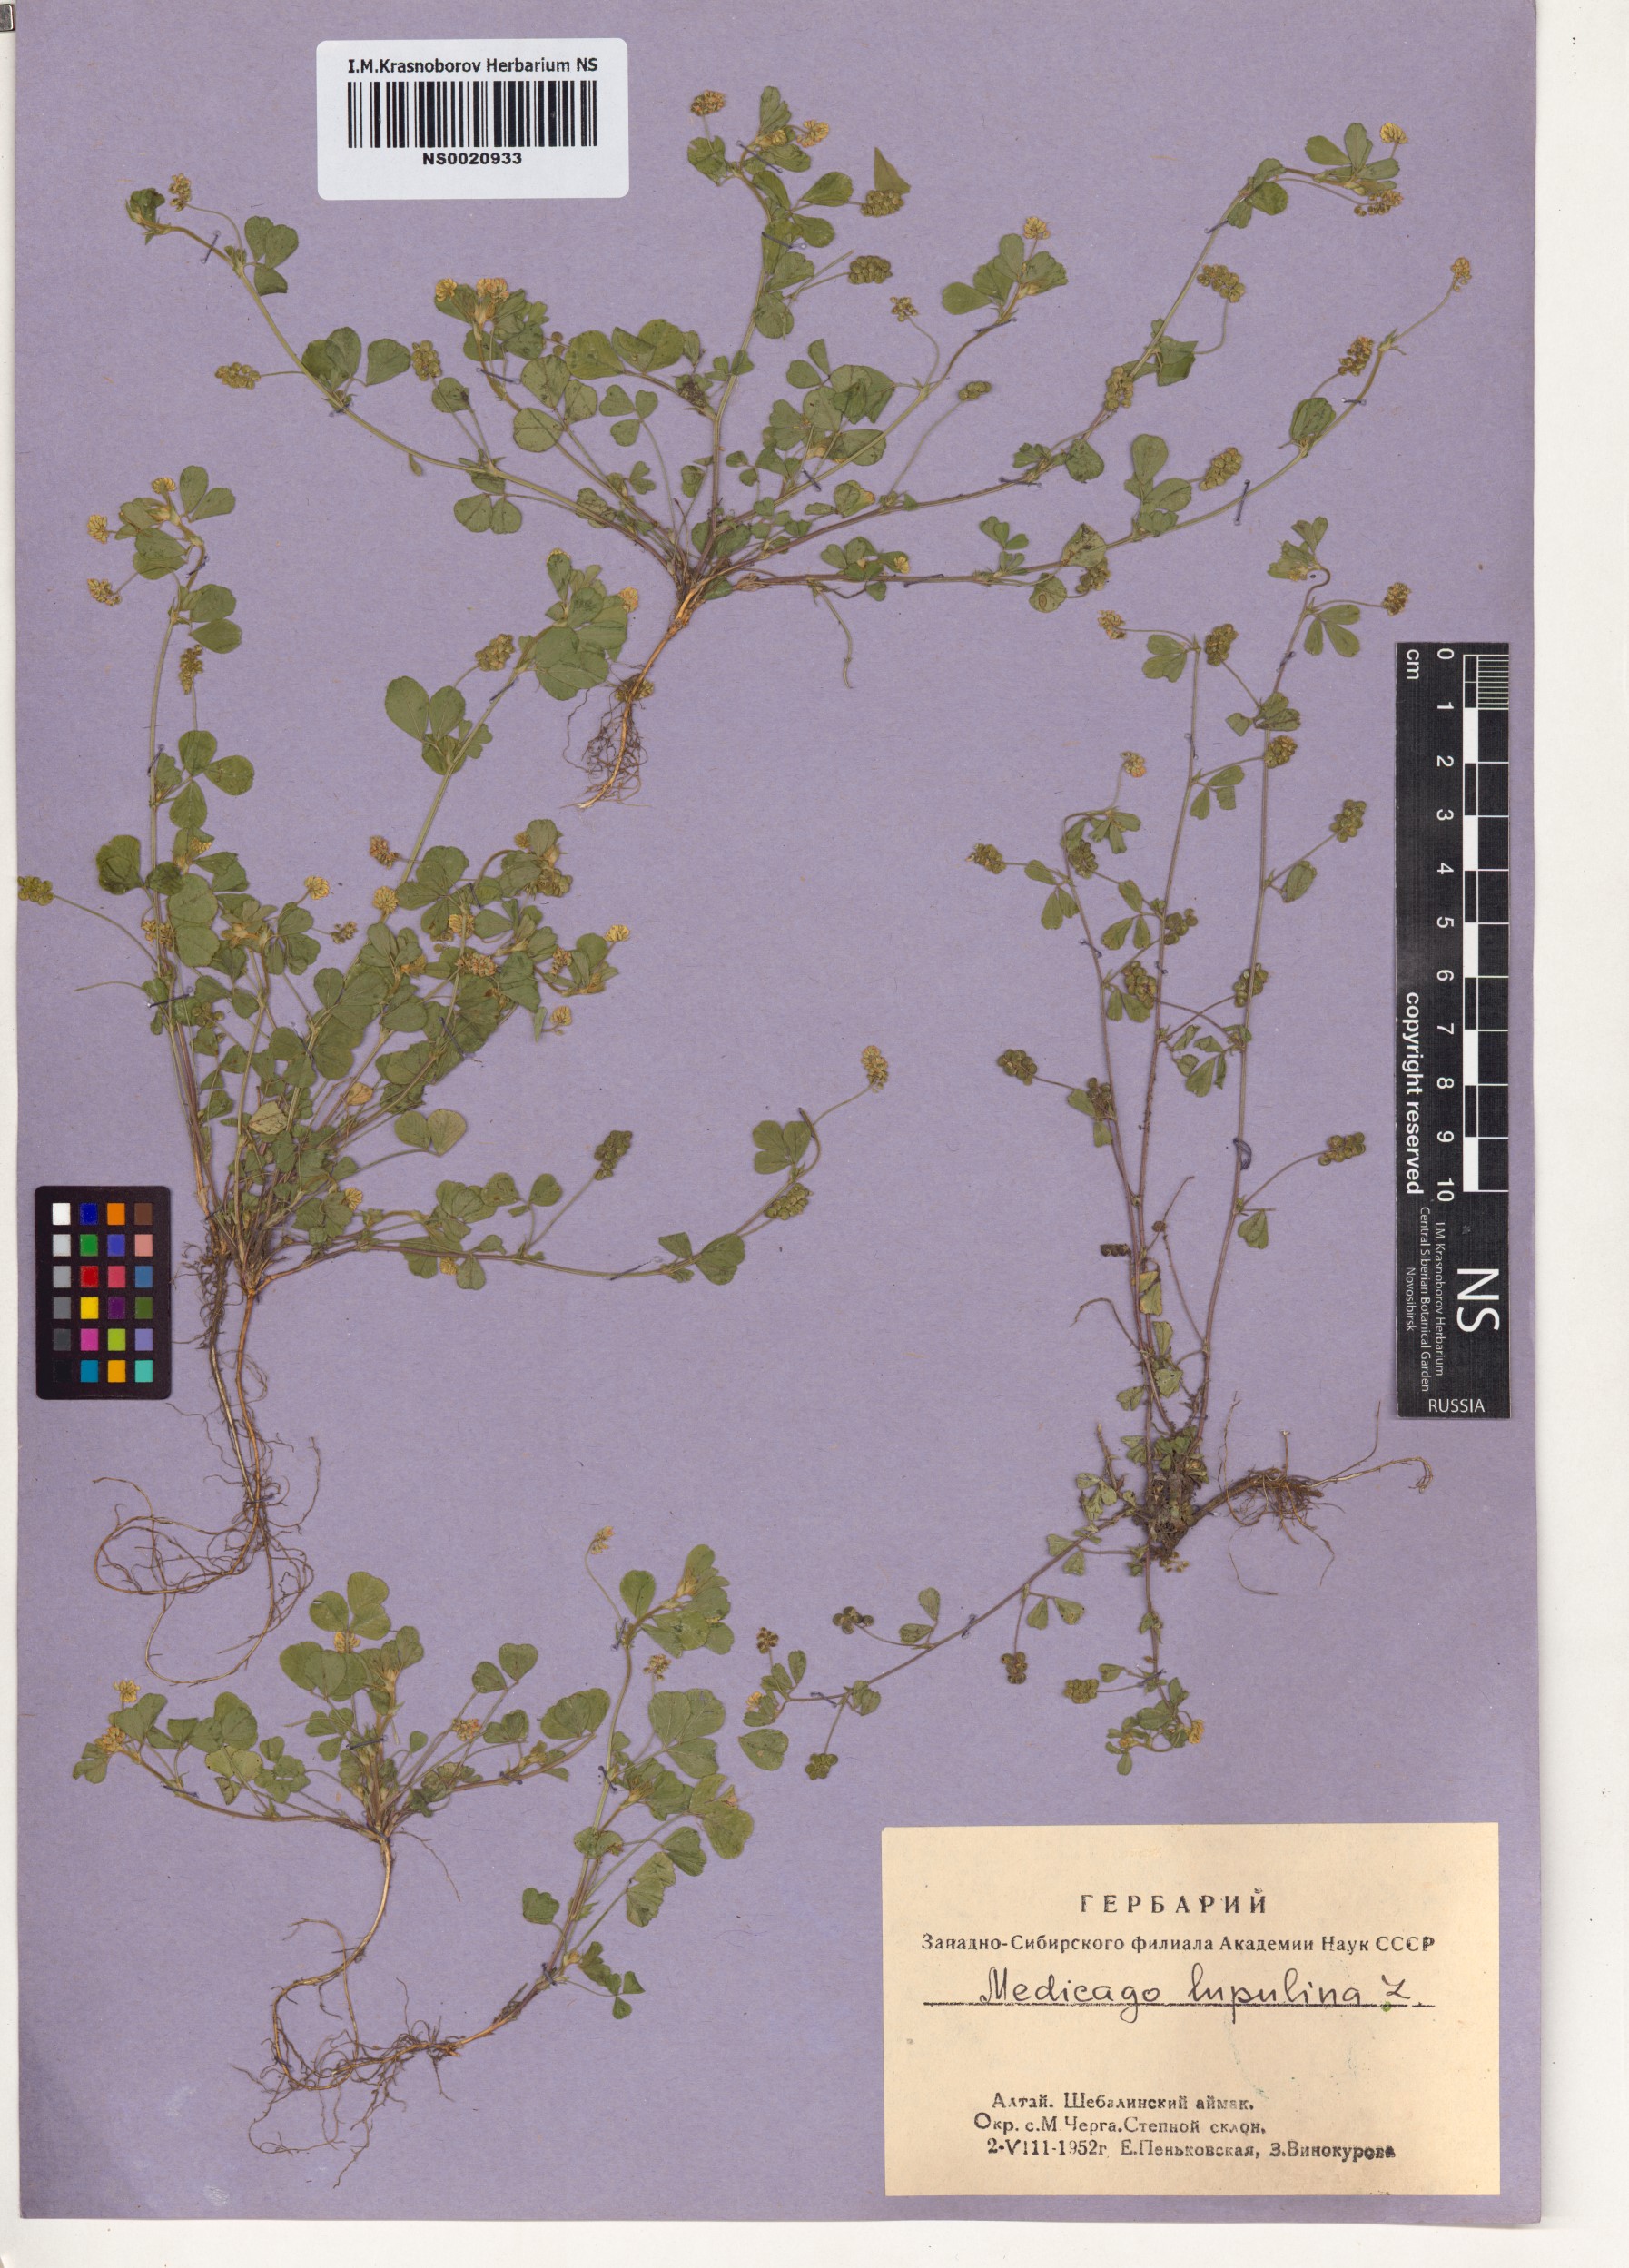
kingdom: Plantae
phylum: Tracheophyta
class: Magnoliopsida
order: Fabales
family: Fabaceae
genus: Medicago
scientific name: Medicago lupulina
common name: Black medick
